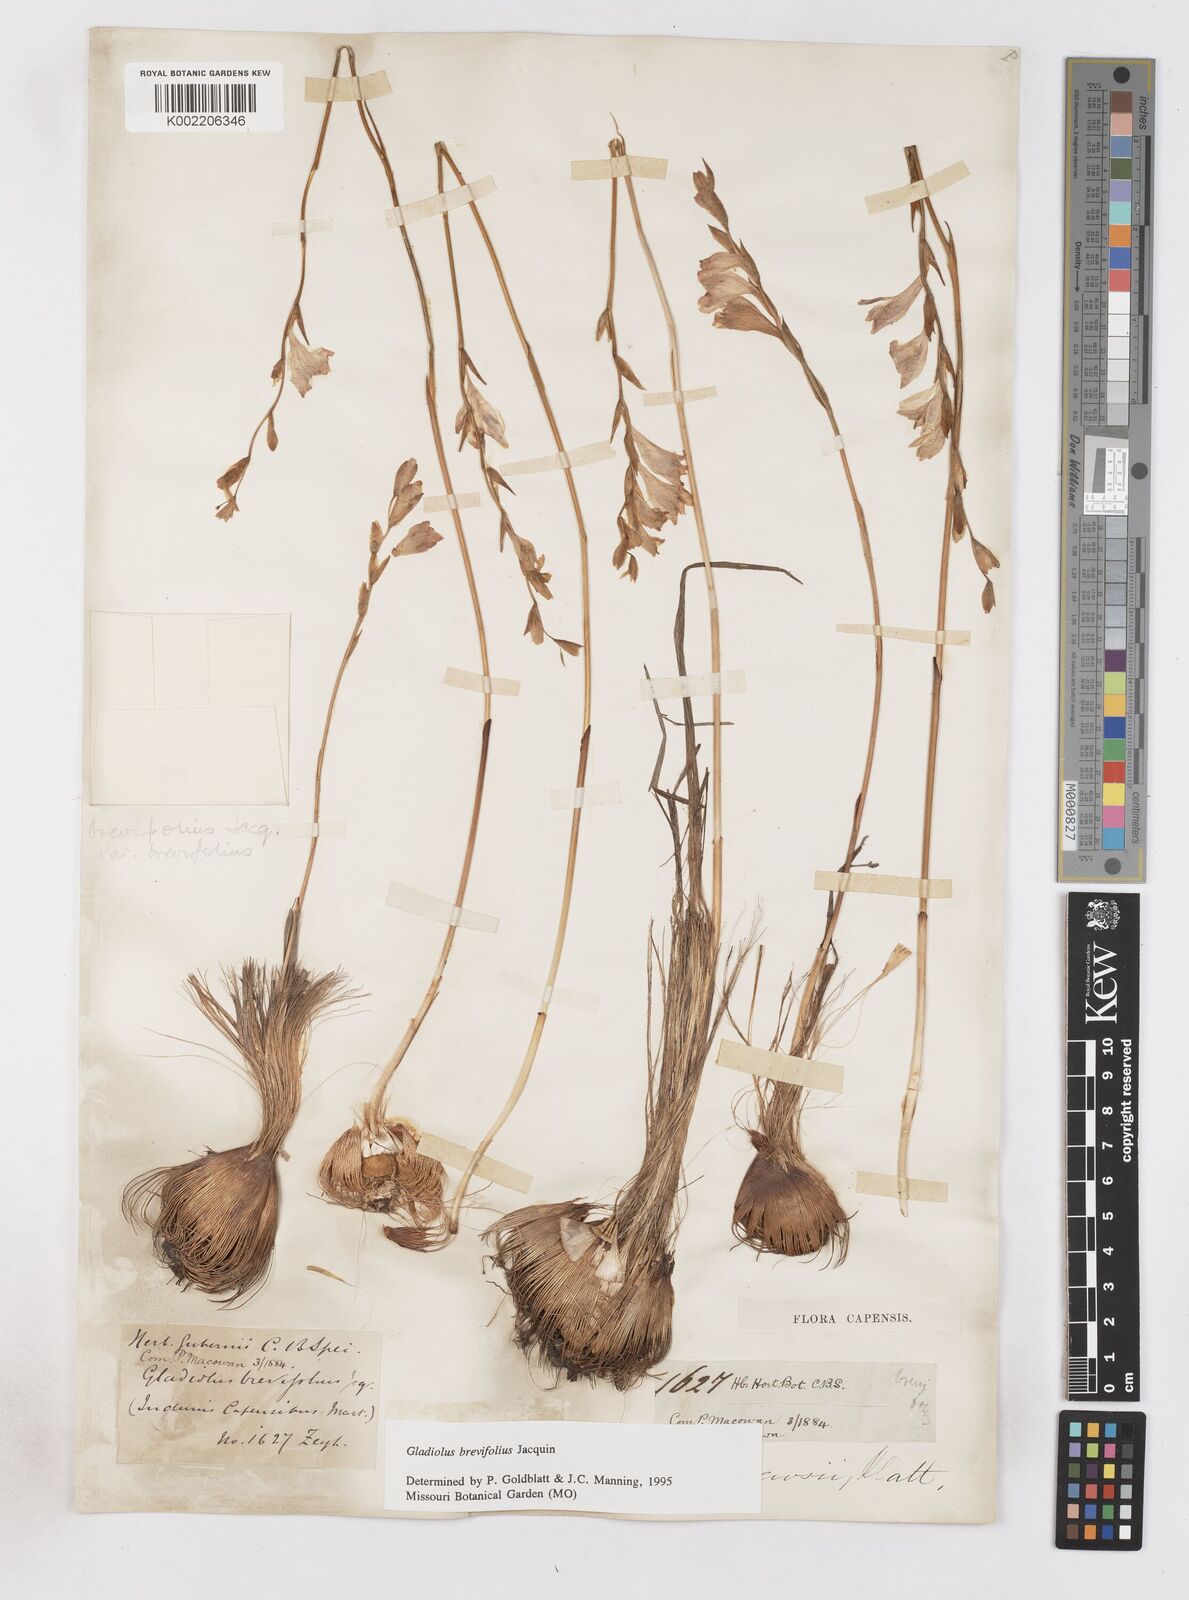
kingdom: Plantae
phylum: Tracheophyta
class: Liliopsida
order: Asparagales
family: Iridaceae
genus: Gladiolus
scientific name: Gladiolus brevifolius
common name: March pypie
